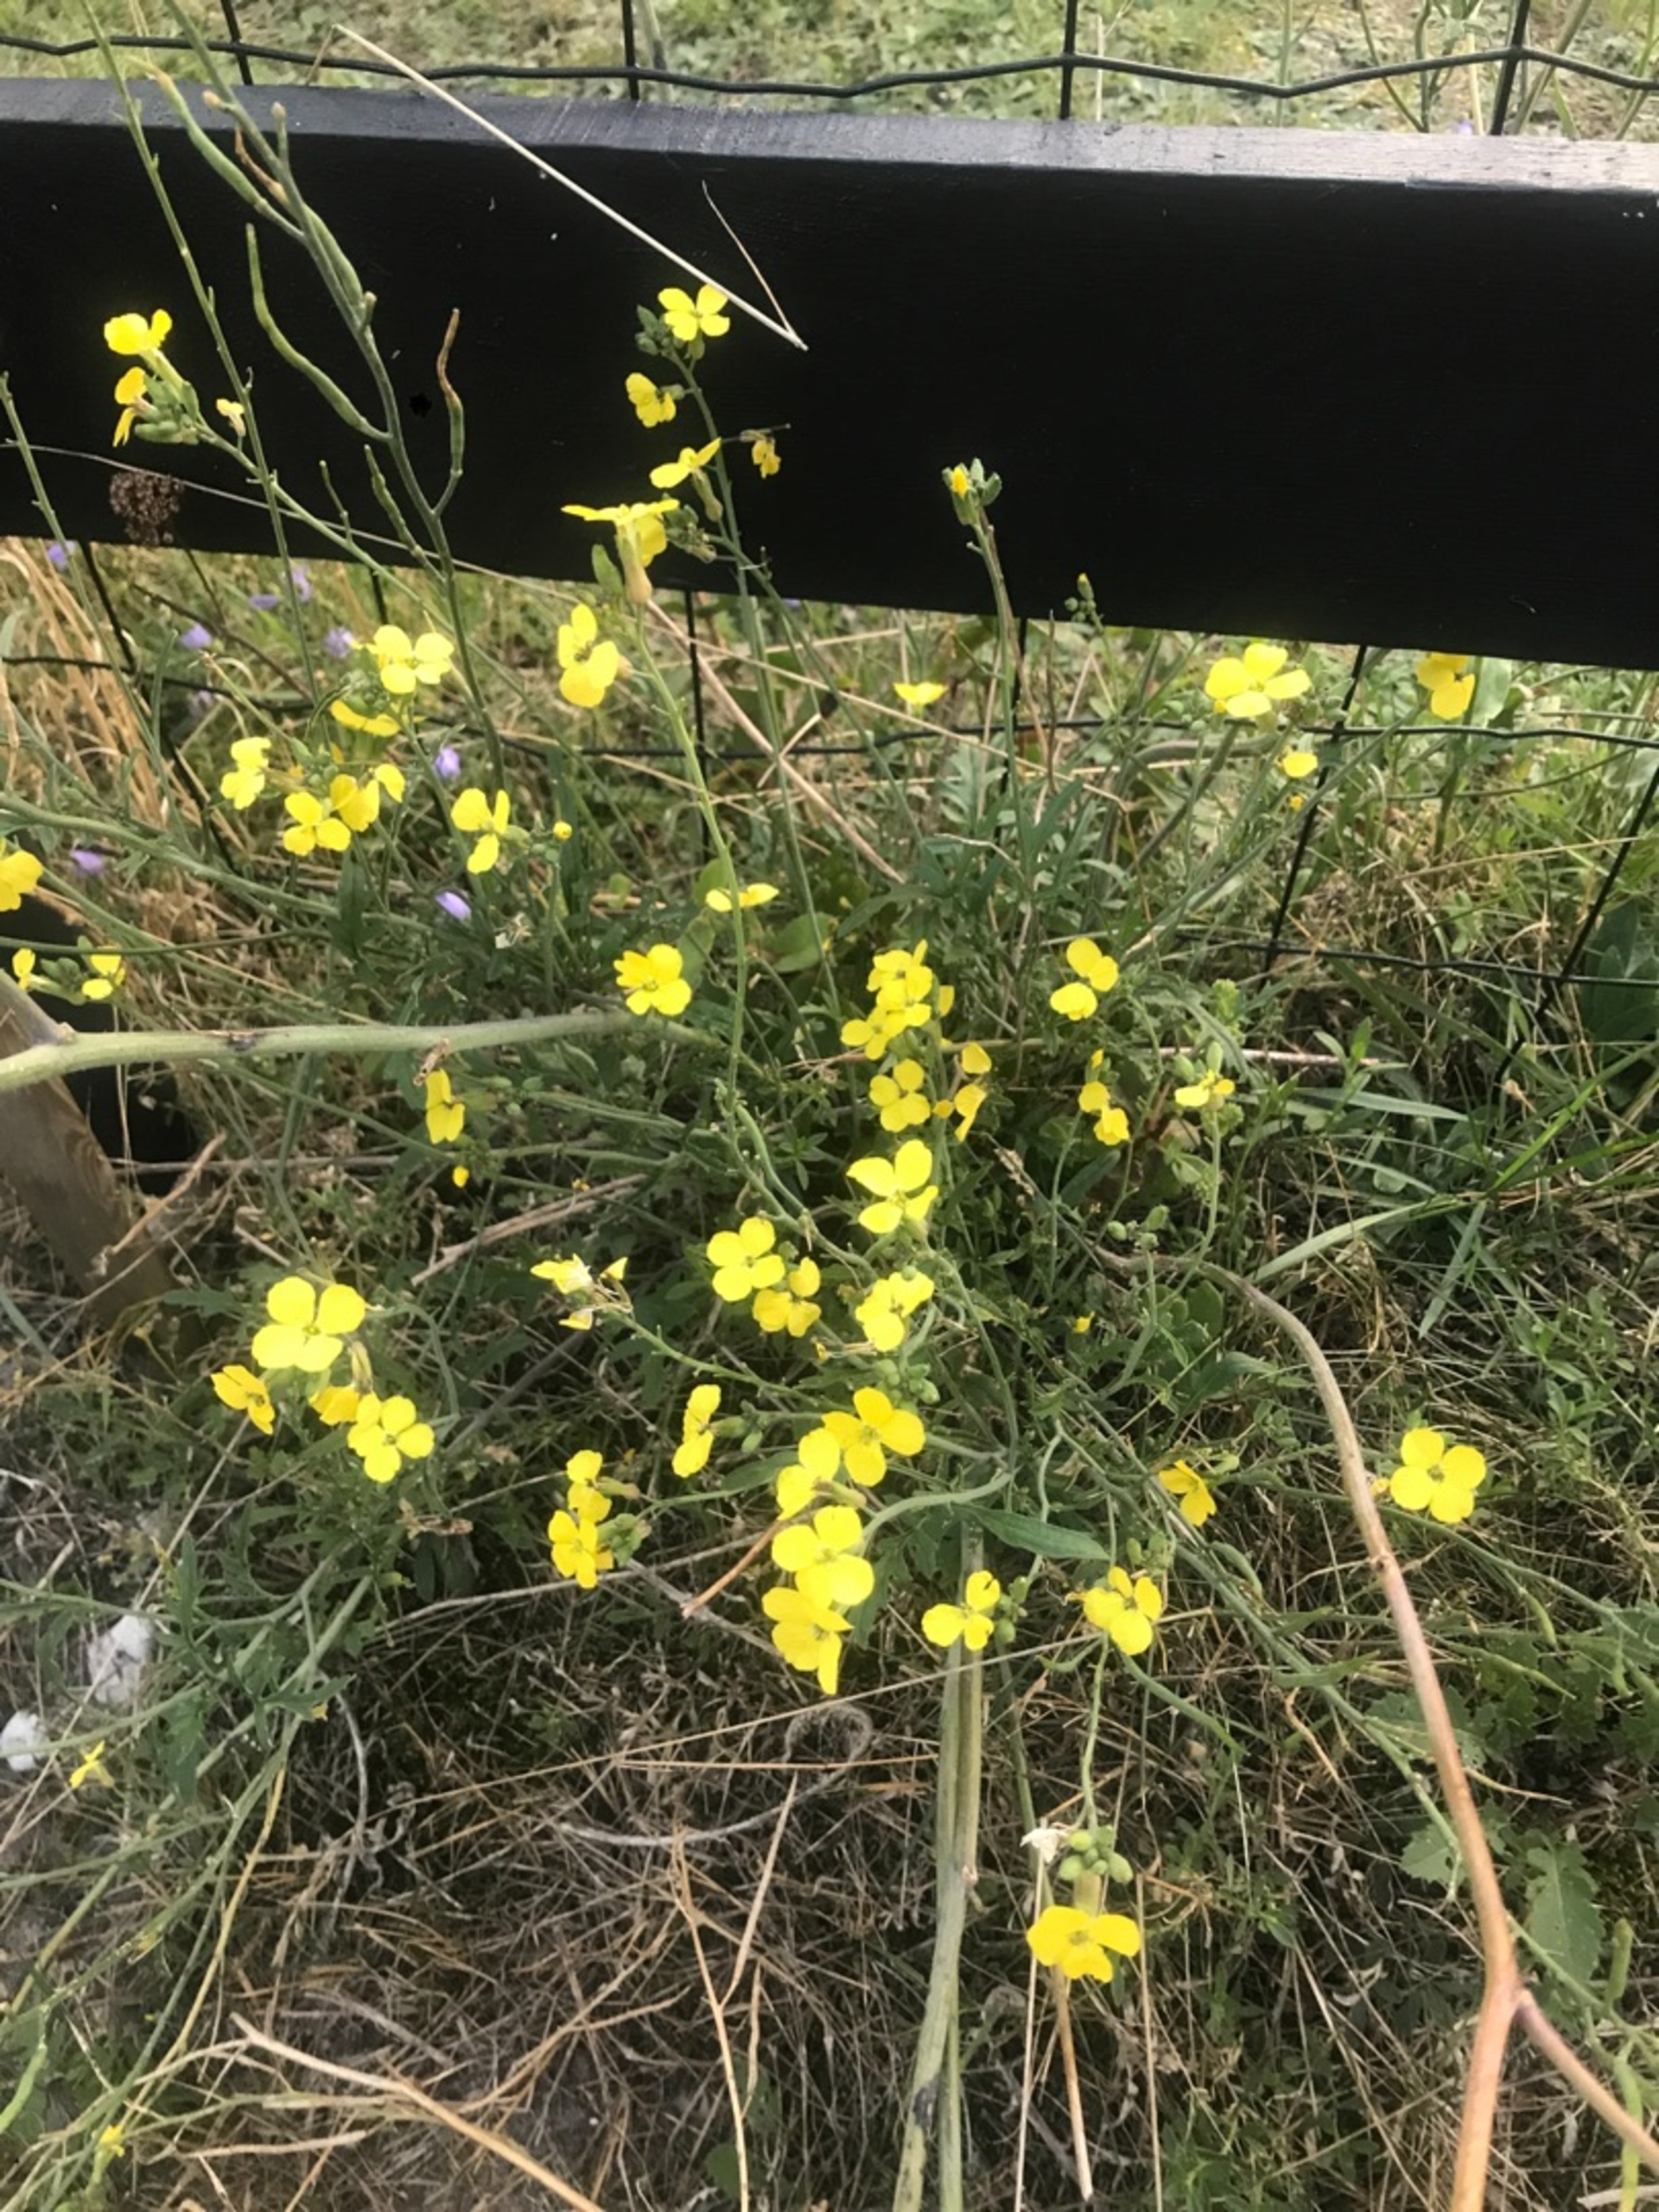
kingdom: Plantae
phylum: Tracheophyta
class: Magnoliopsida
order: Brassicales
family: Brassicaceae
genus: Diplotaxis
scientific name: Diplotaxis tenuifolia
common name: Sandsennep
